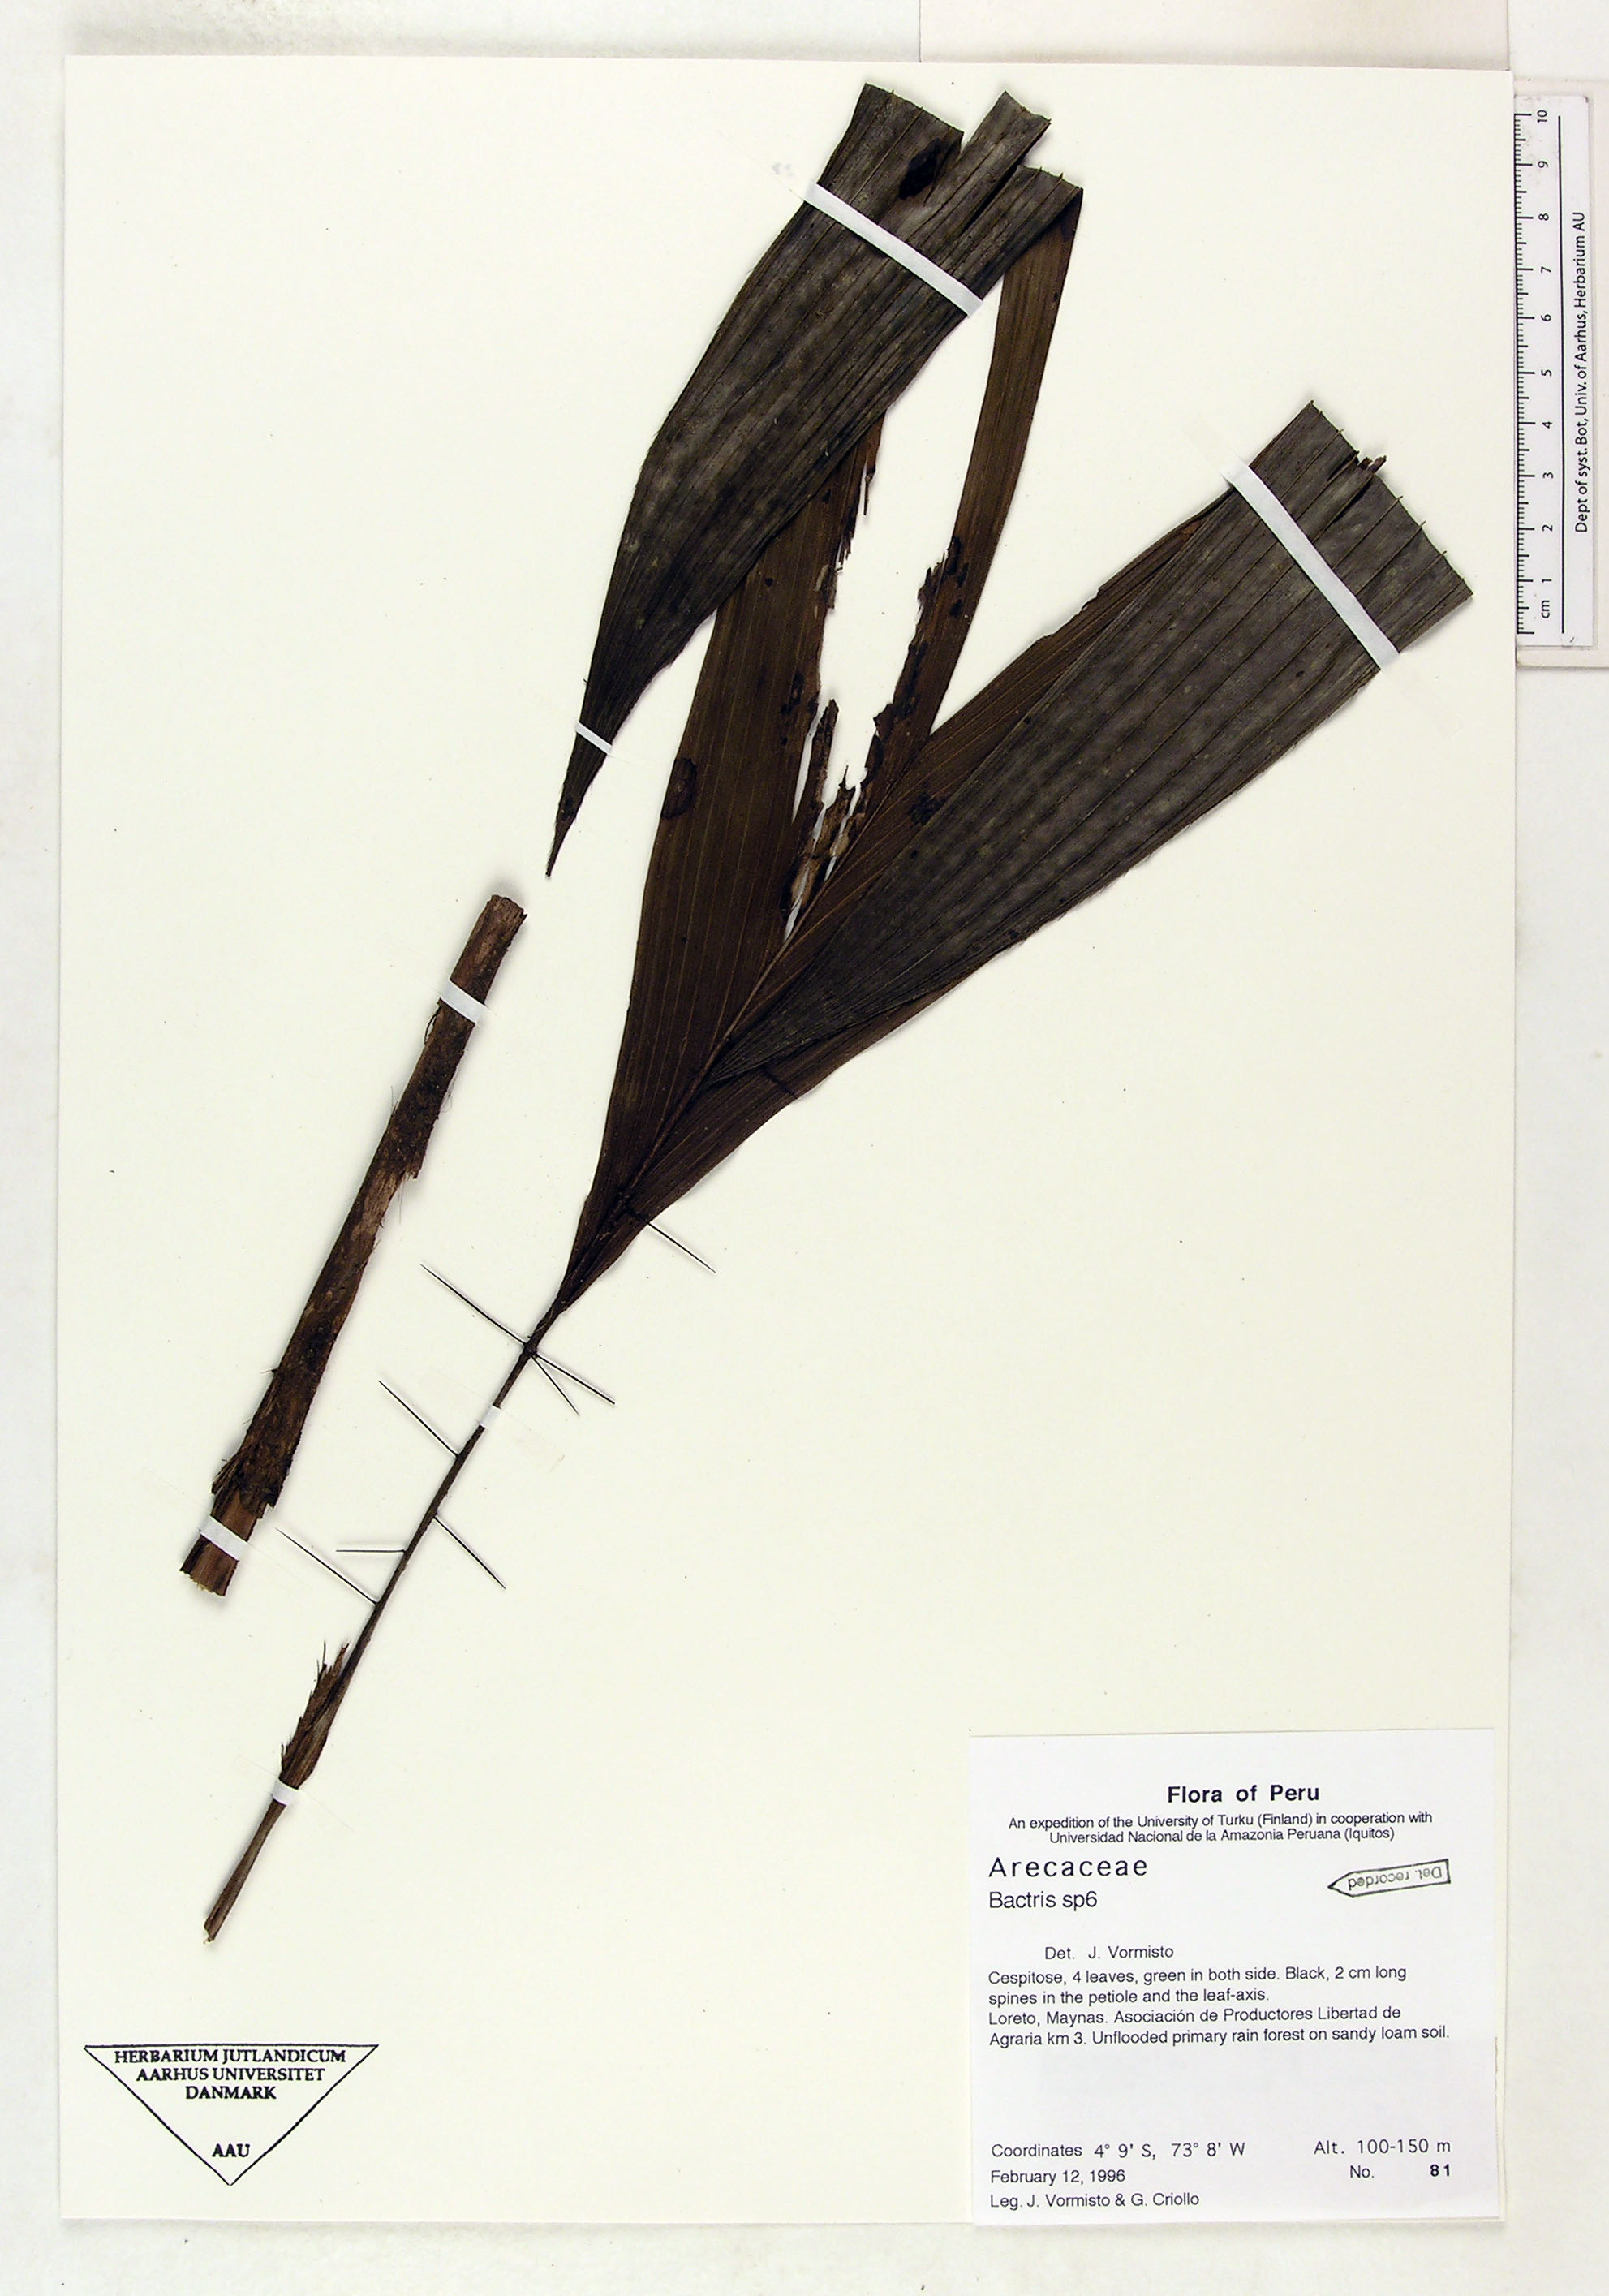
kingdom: Plantae
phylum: Tracheophyta
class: Liliopsida
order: Arecales
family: Arecaceae
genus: Bactris
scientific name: Bactris
